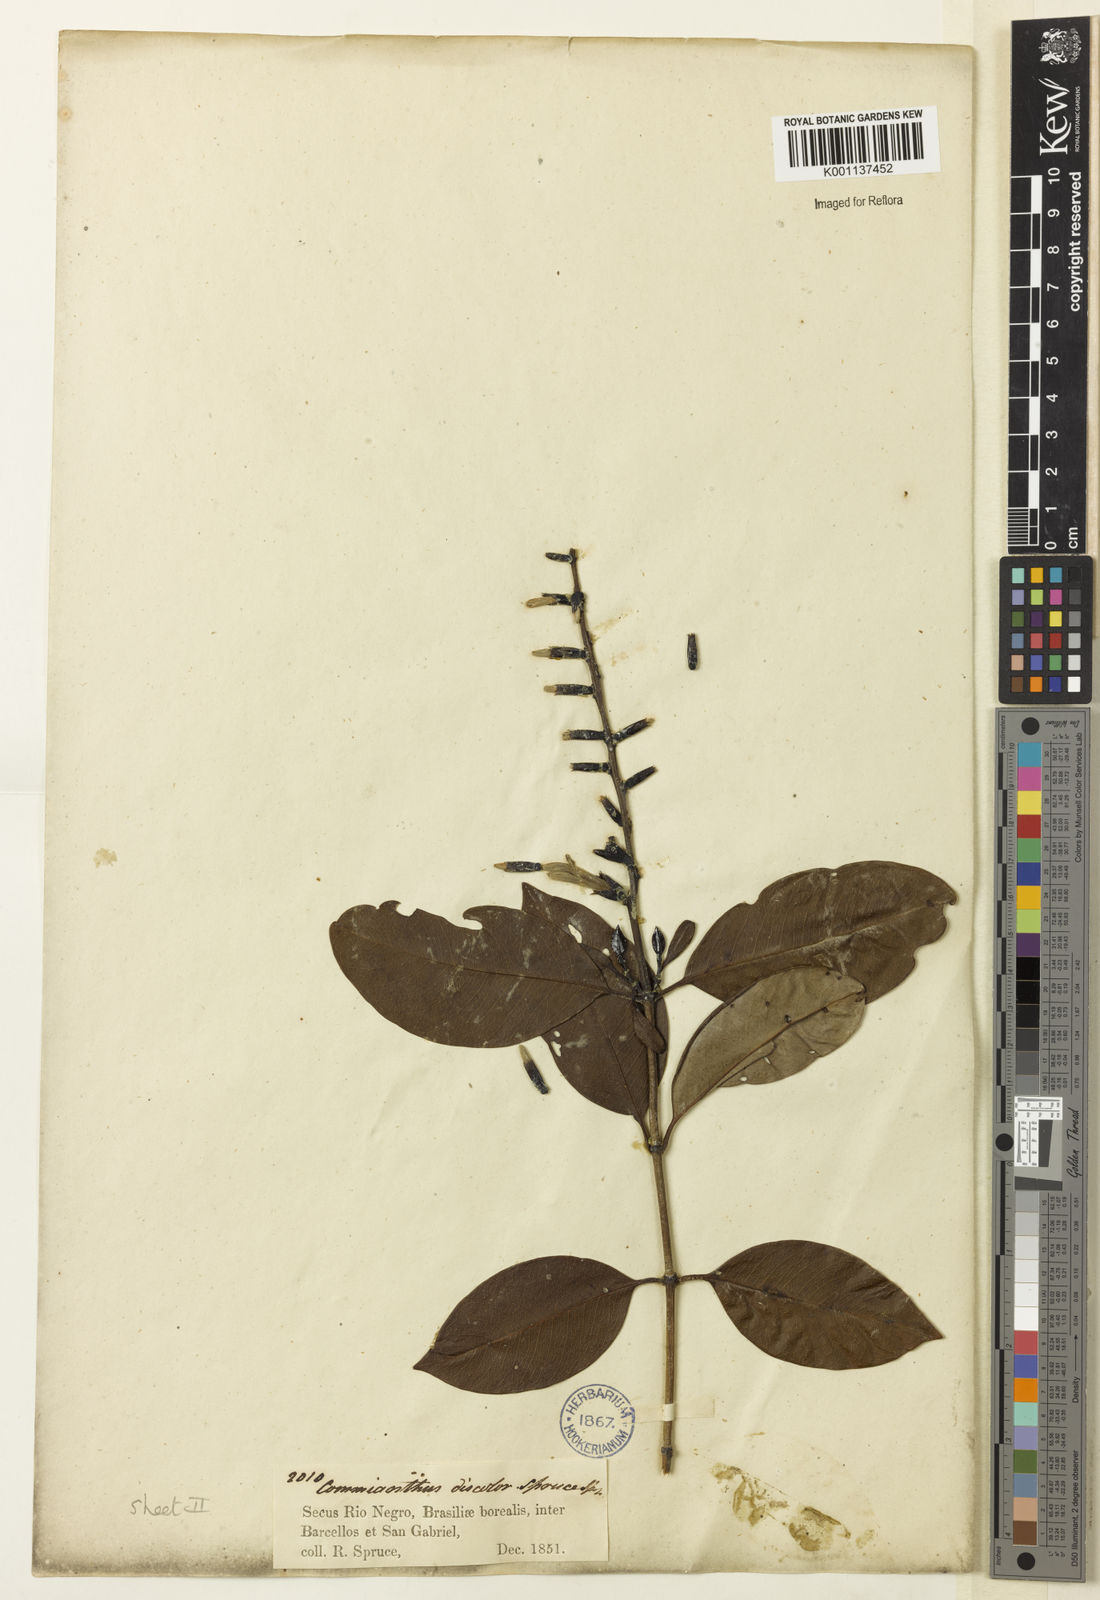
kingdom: Plantae
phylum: Tracheophyta
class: Magnoliopsida
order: Gentianales
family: Rubiaceae
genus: Retiniphyllum
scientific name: Retiniphyllum
